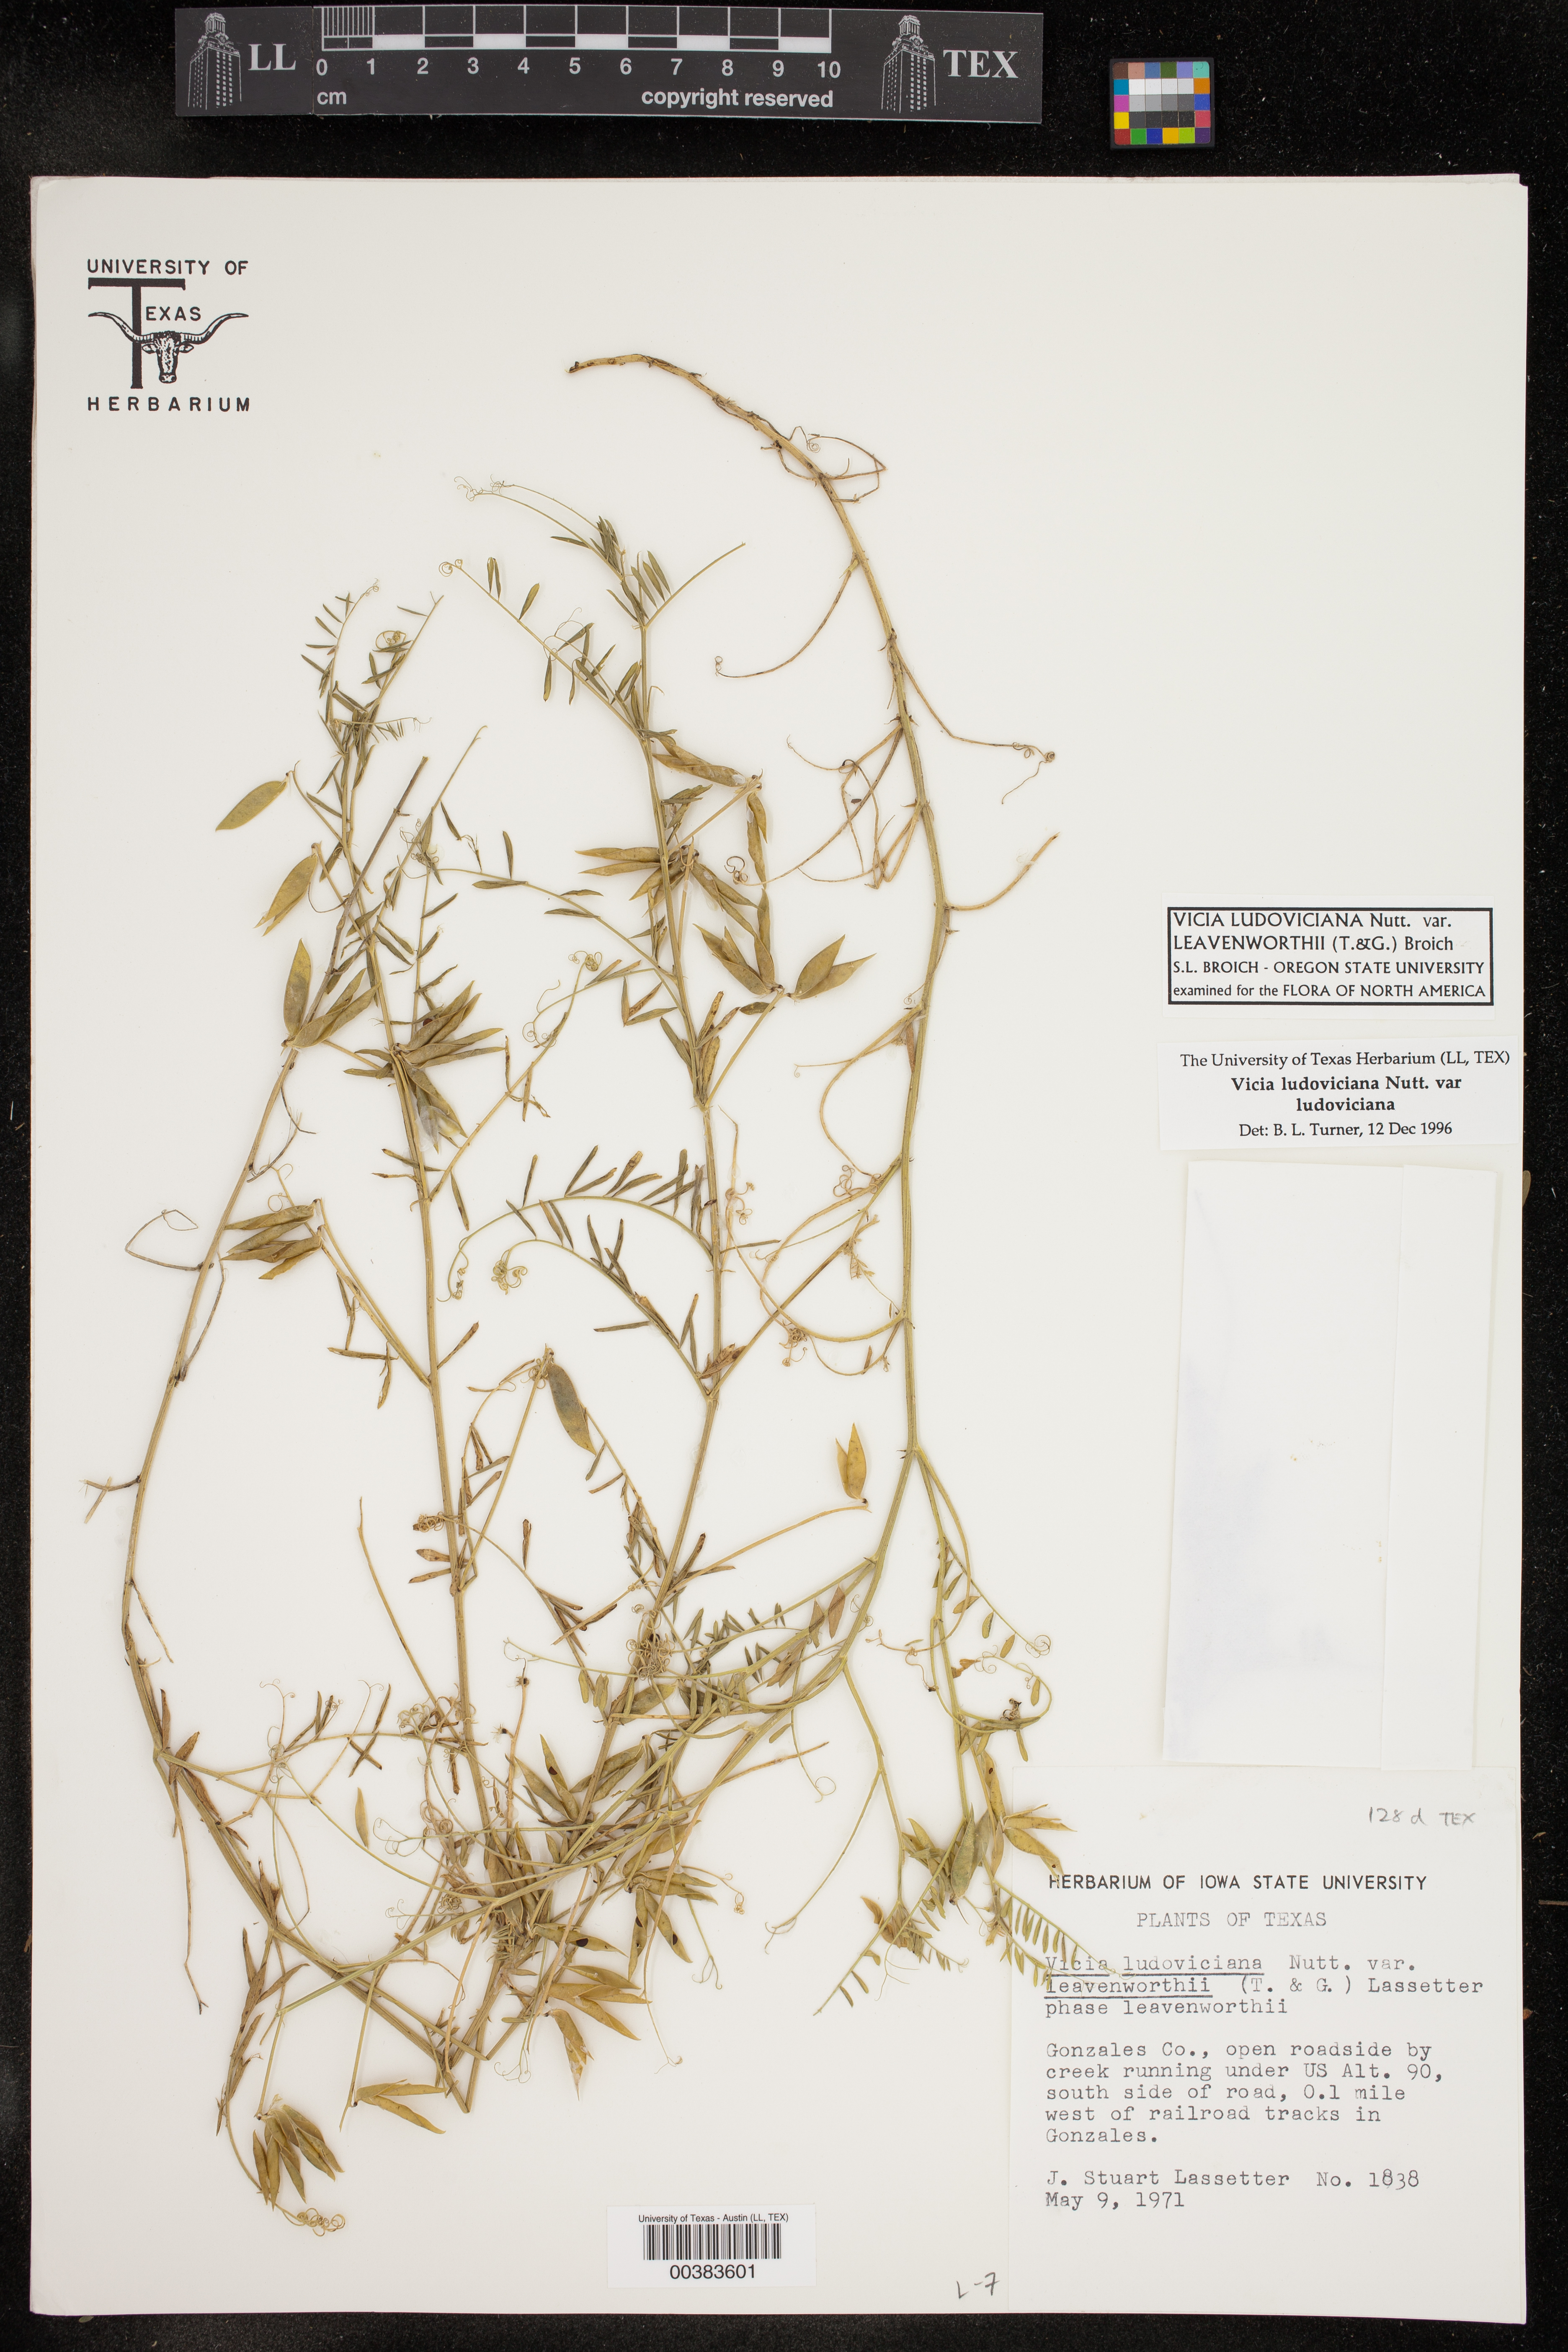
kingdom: Plantae
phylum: Tracheophyta
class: Magnoliopsida
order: Fabales
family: Fabaceae
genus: Vicia
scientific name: Vicia ludoviciana
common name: Louisiana vetch
